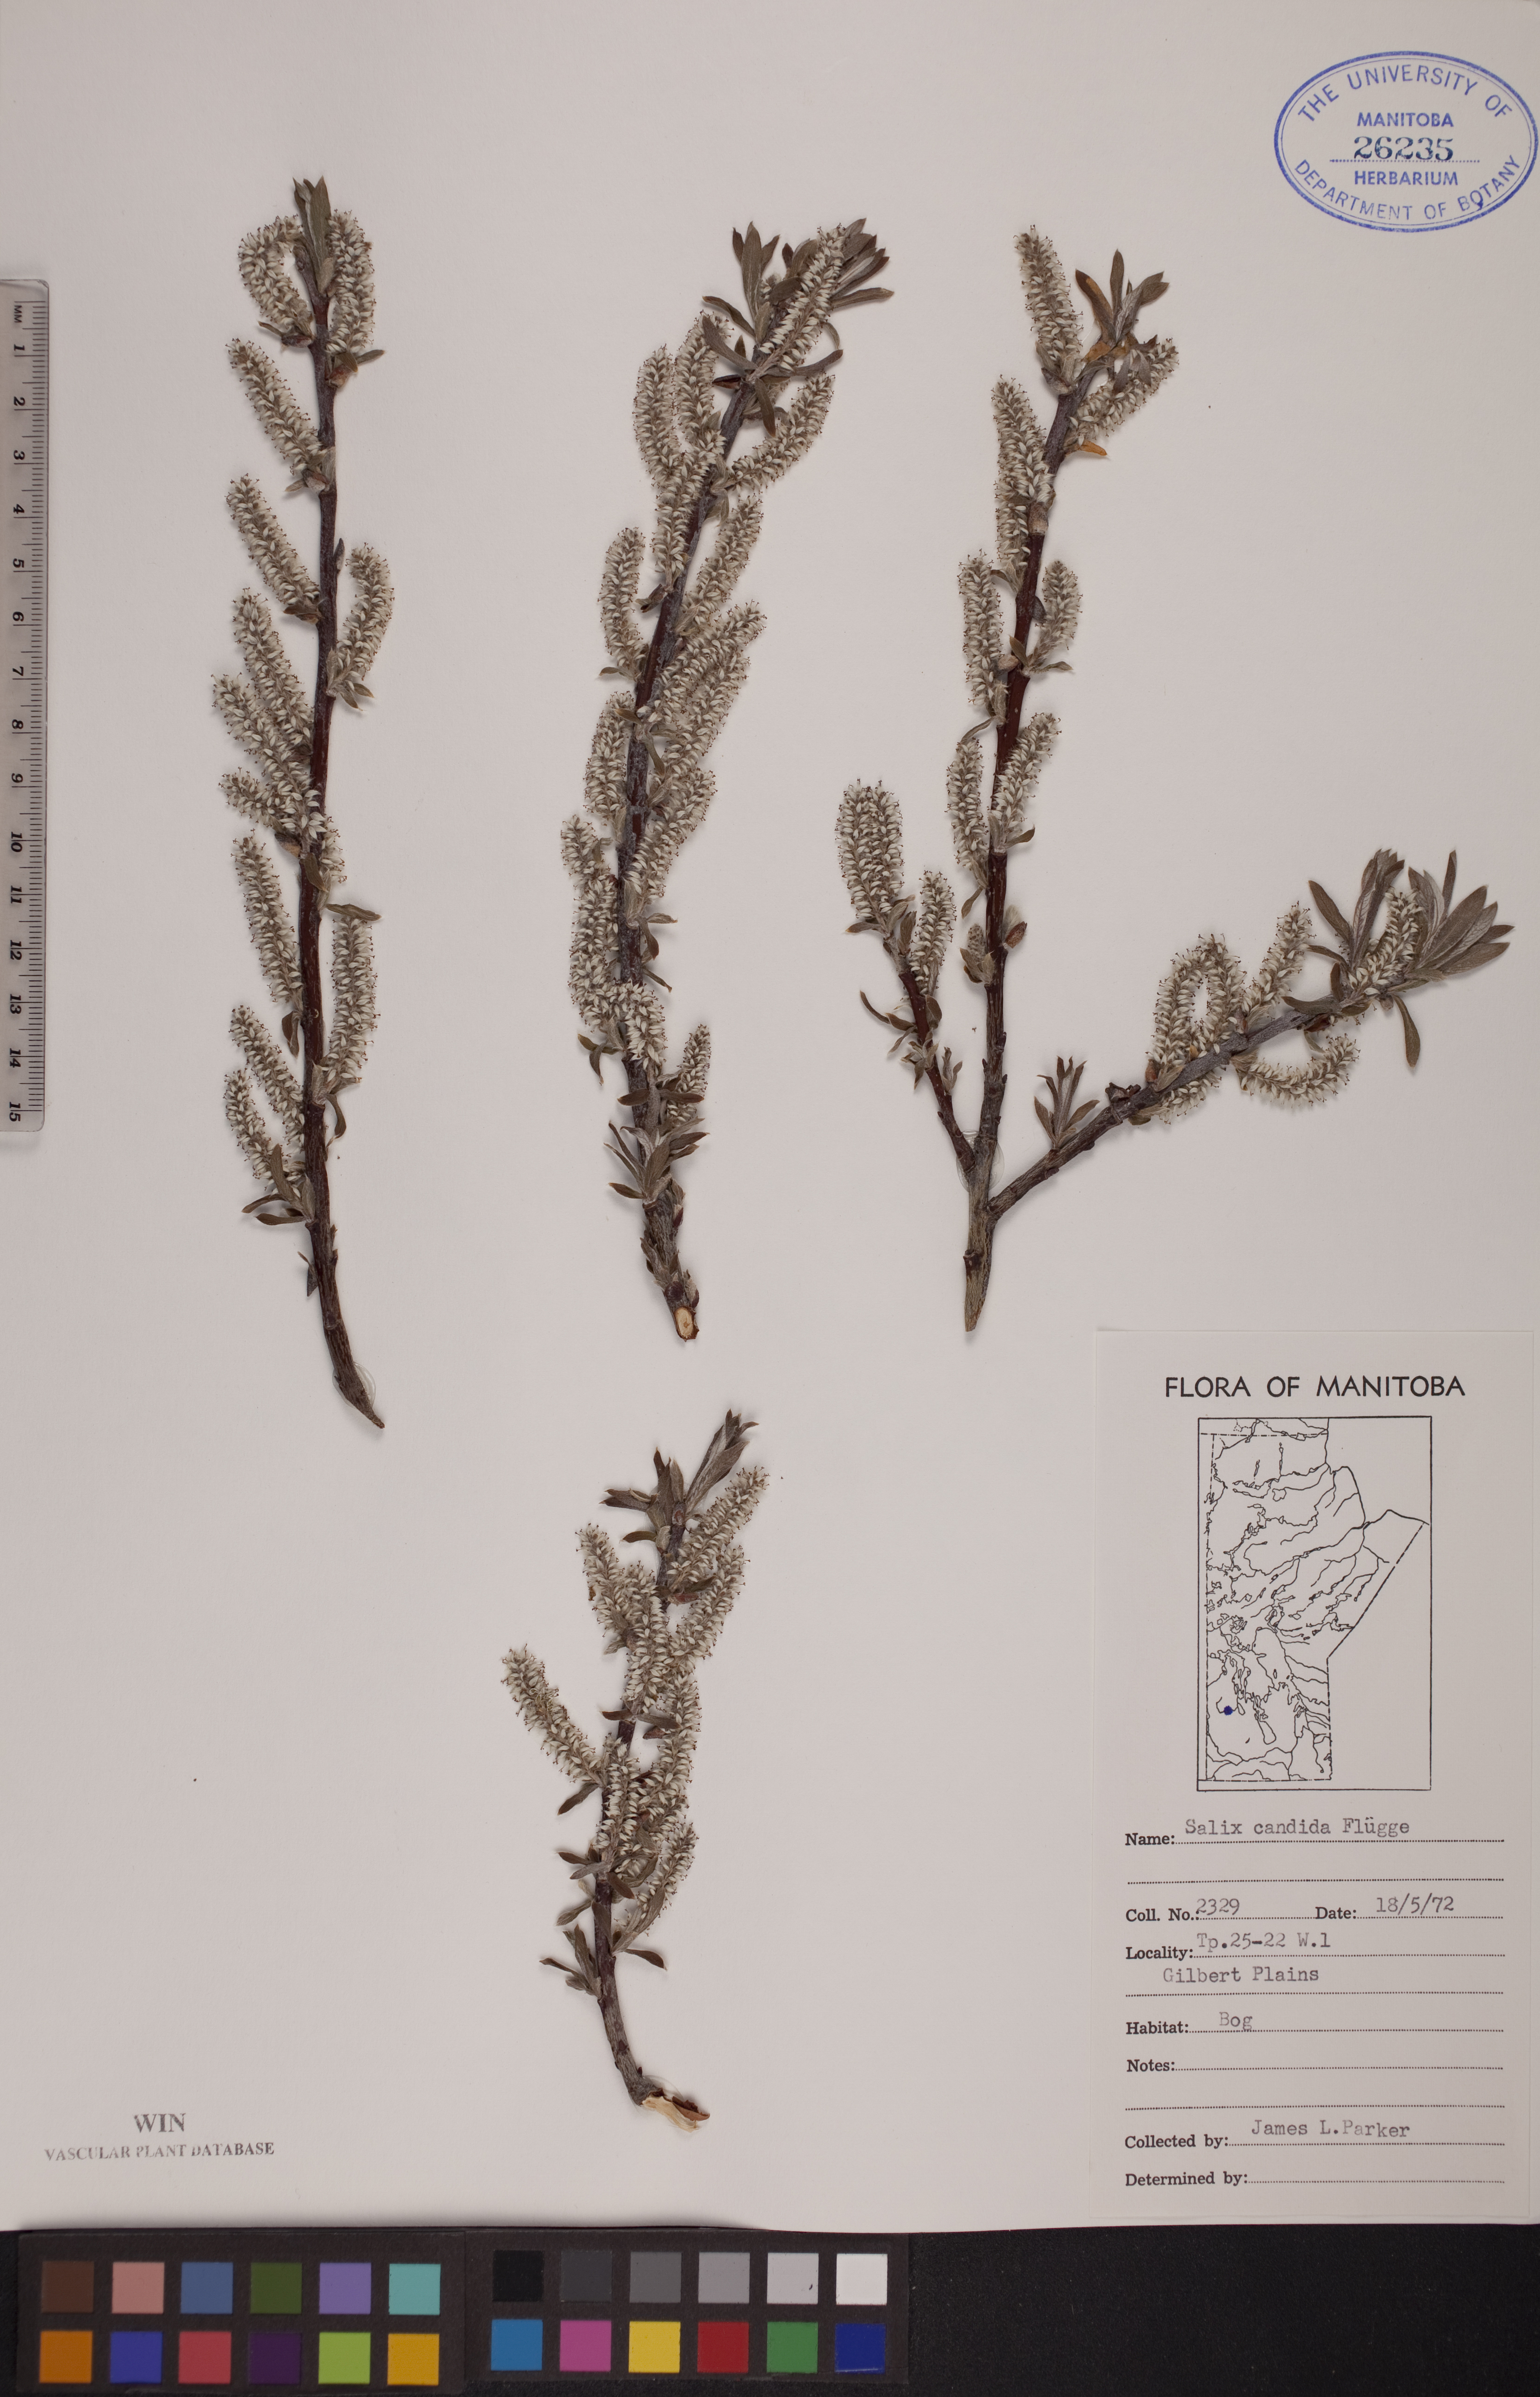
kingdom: Plantae
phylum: Tracheophyta
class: Magnoliopsida
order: Malpighiales
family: Salicaceae
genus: Salix
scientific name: Salix candida
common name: Hoary willow
